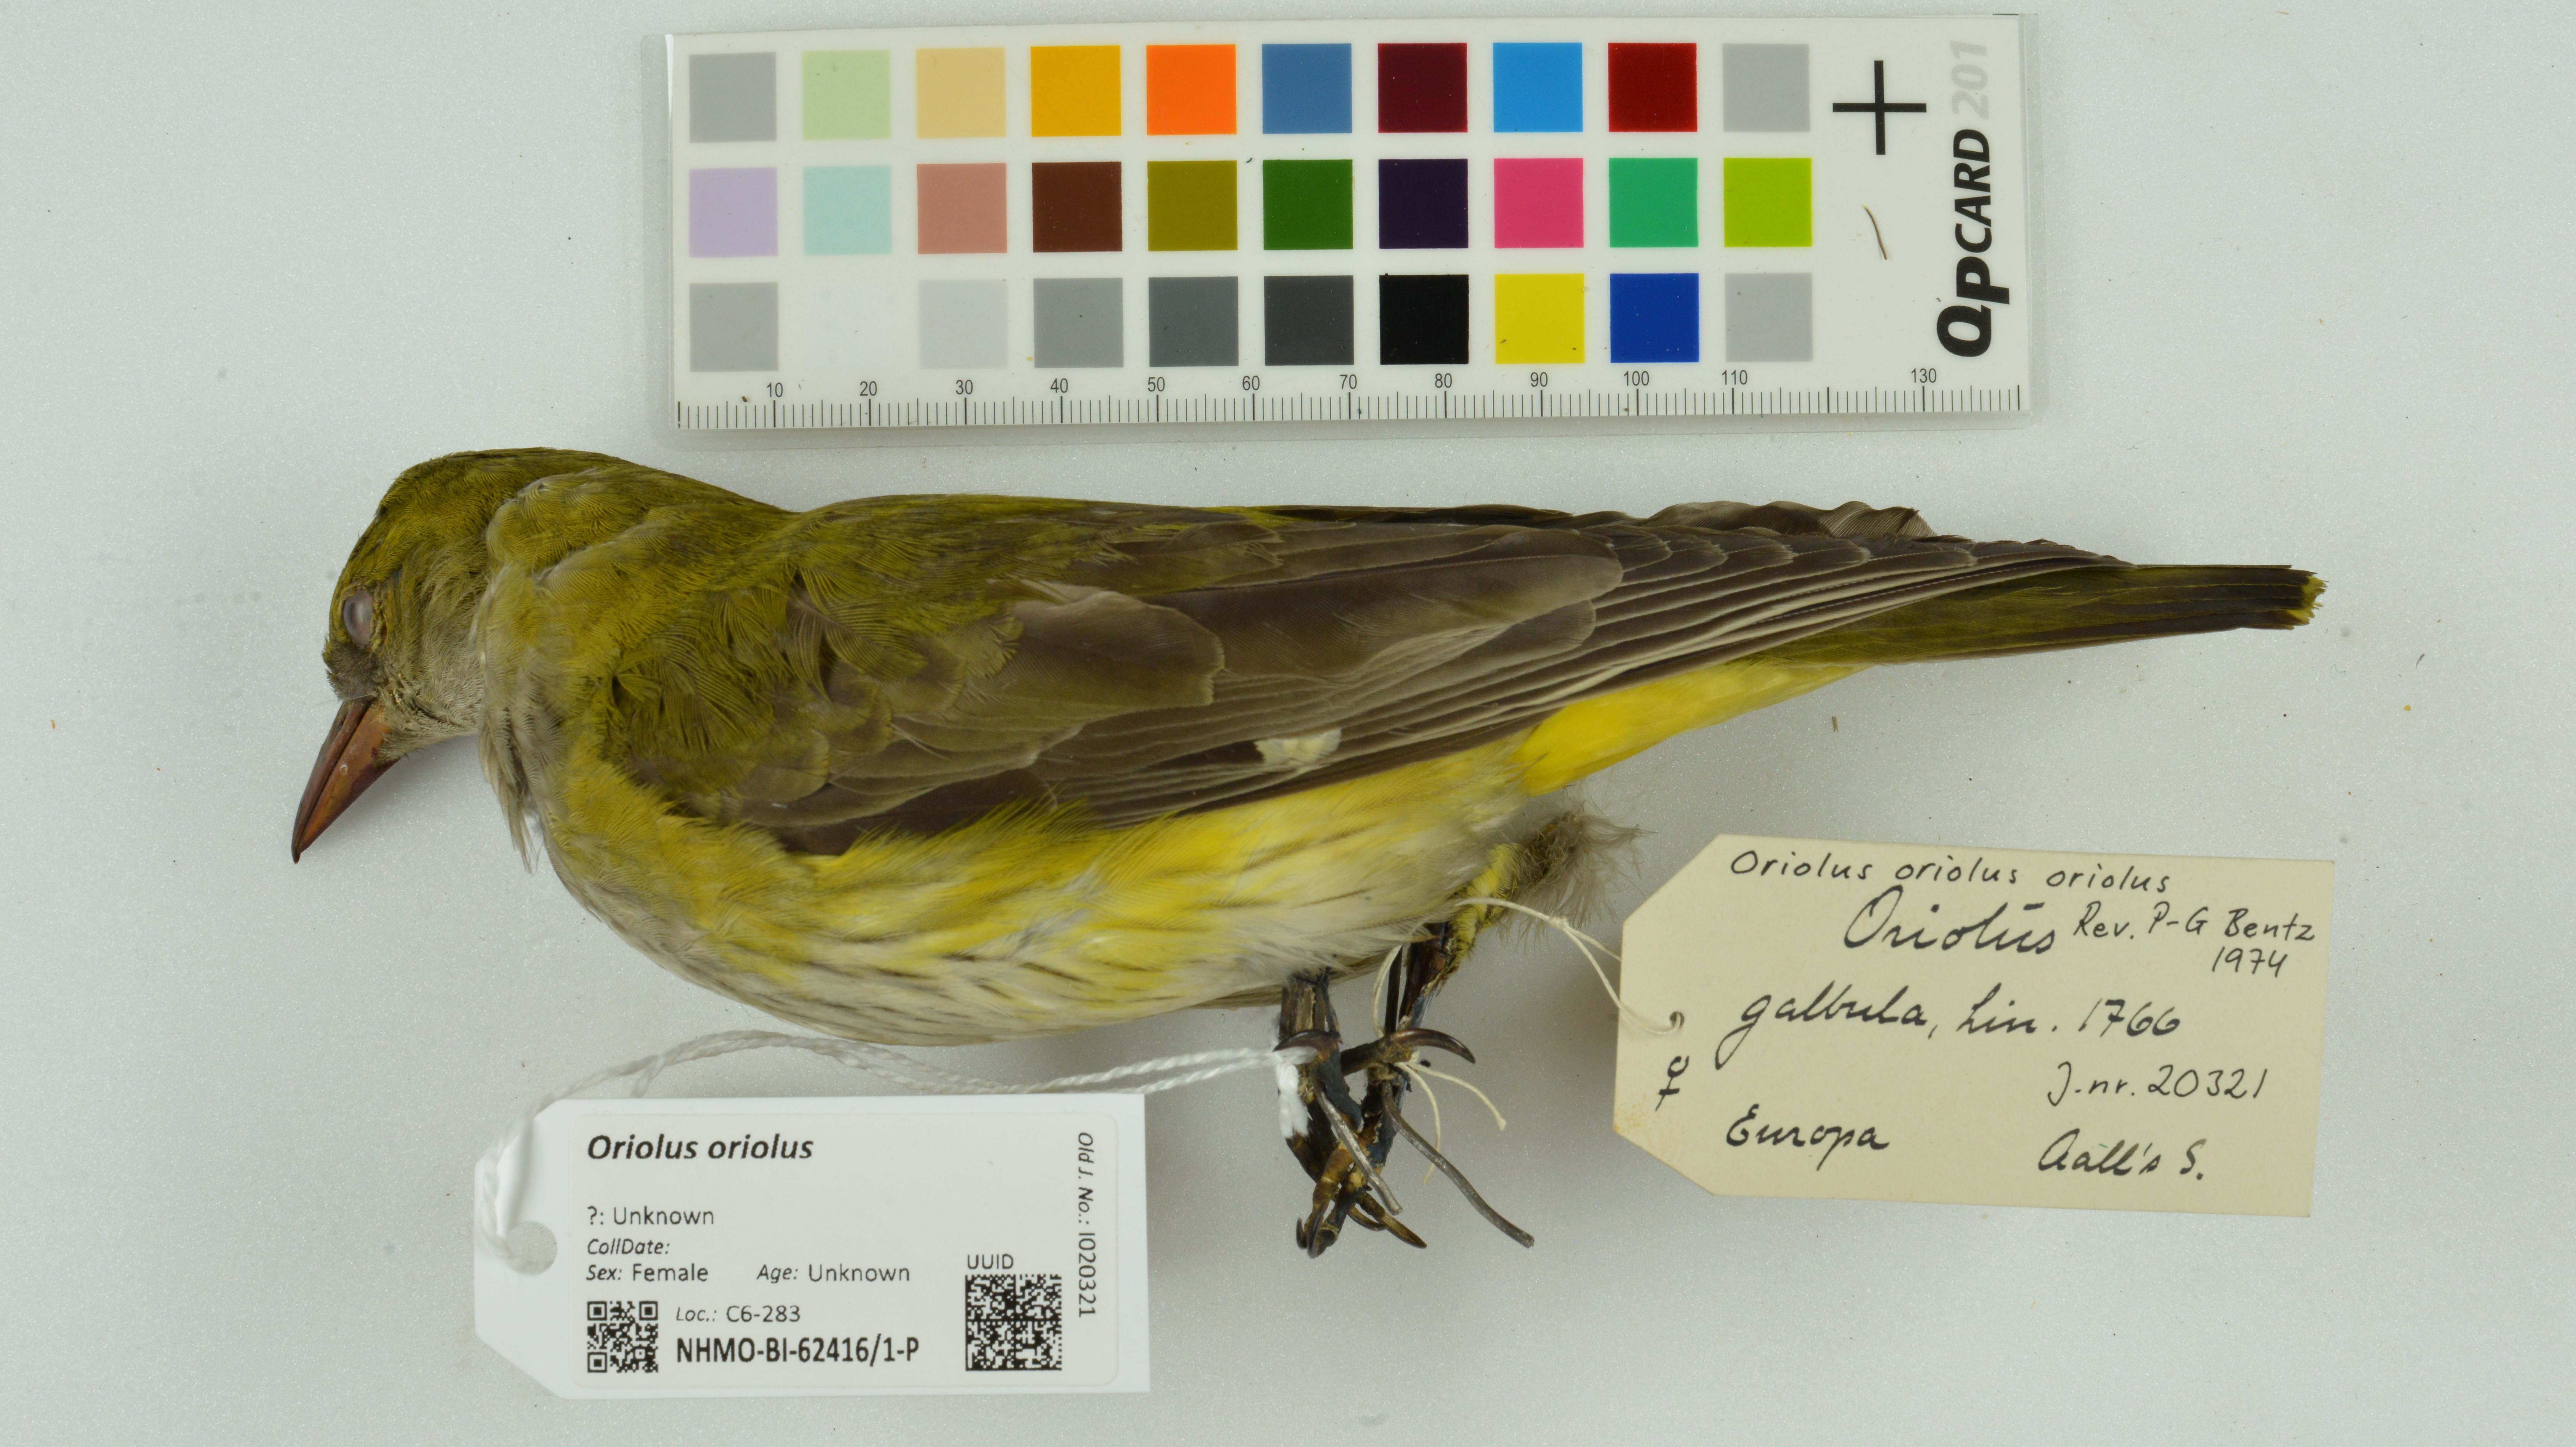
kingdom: Animalia
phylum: Chordata
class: Aves
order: Passeriformes
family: Oriolidae
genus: Oriolus
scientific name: Oriolus oriolus
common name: Eurasian golden oriole
